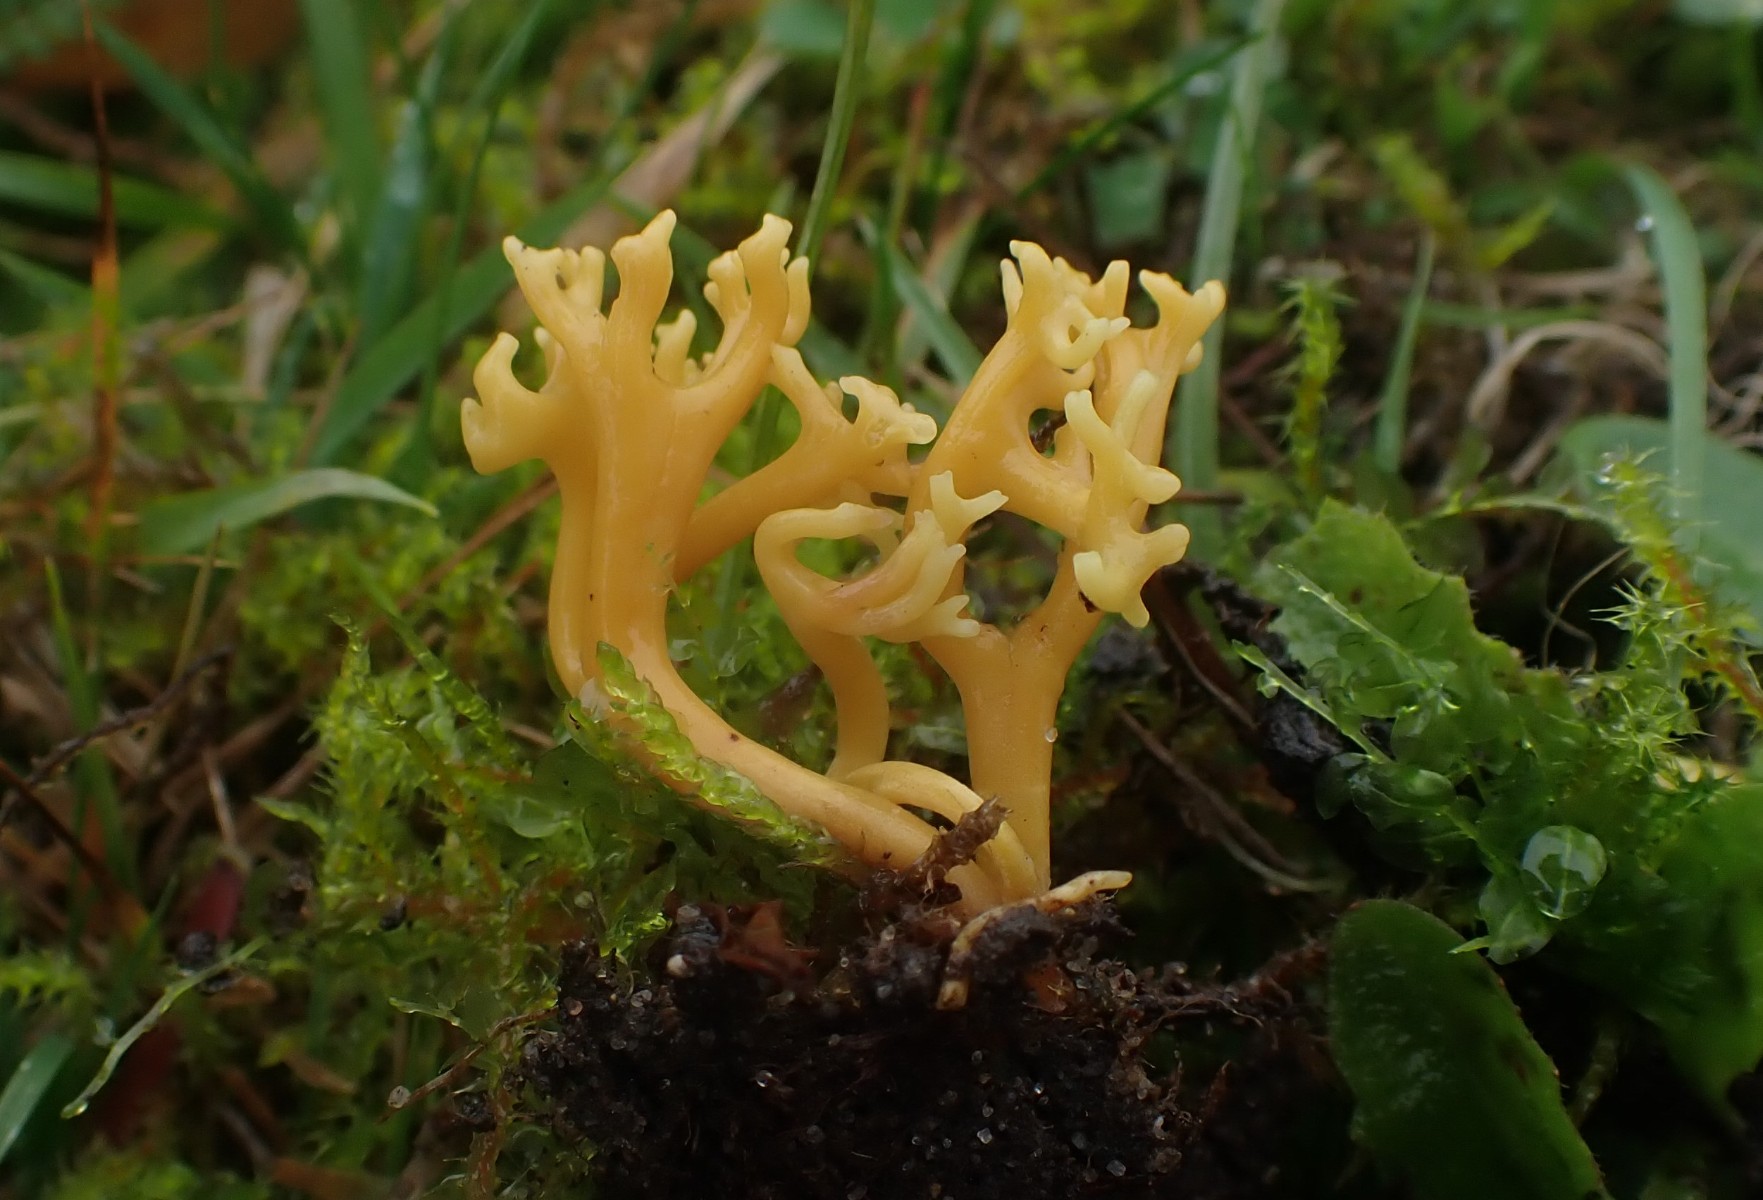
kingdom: Fungi
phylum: Basidiomycota
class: Agaricomycetes
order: Agaricales
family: Clavariaceae
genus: Clavulinopsis
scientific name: Clavulinopsis corniculata
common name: eng-køllesvamp
